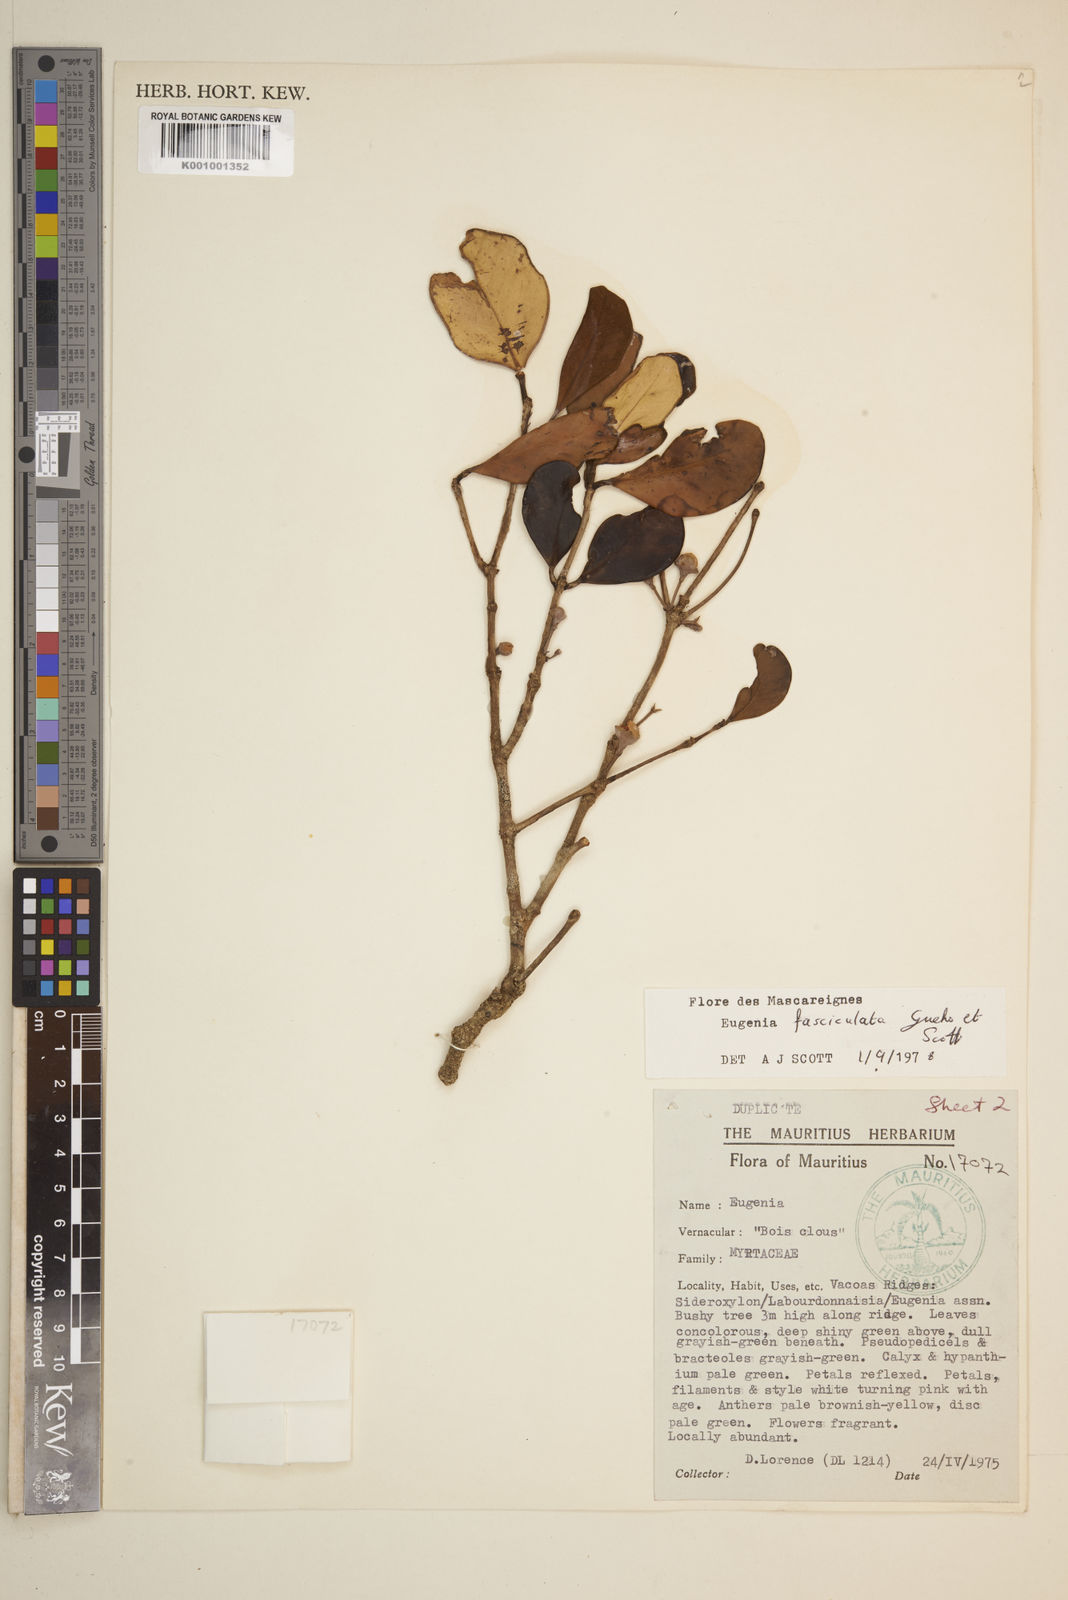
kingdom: Plantae
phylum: Tracheophyta
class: Magnoliopsida
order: Myrtales
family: Myrtaceae
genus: Eugenia
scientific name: Eugenia roxburghii
